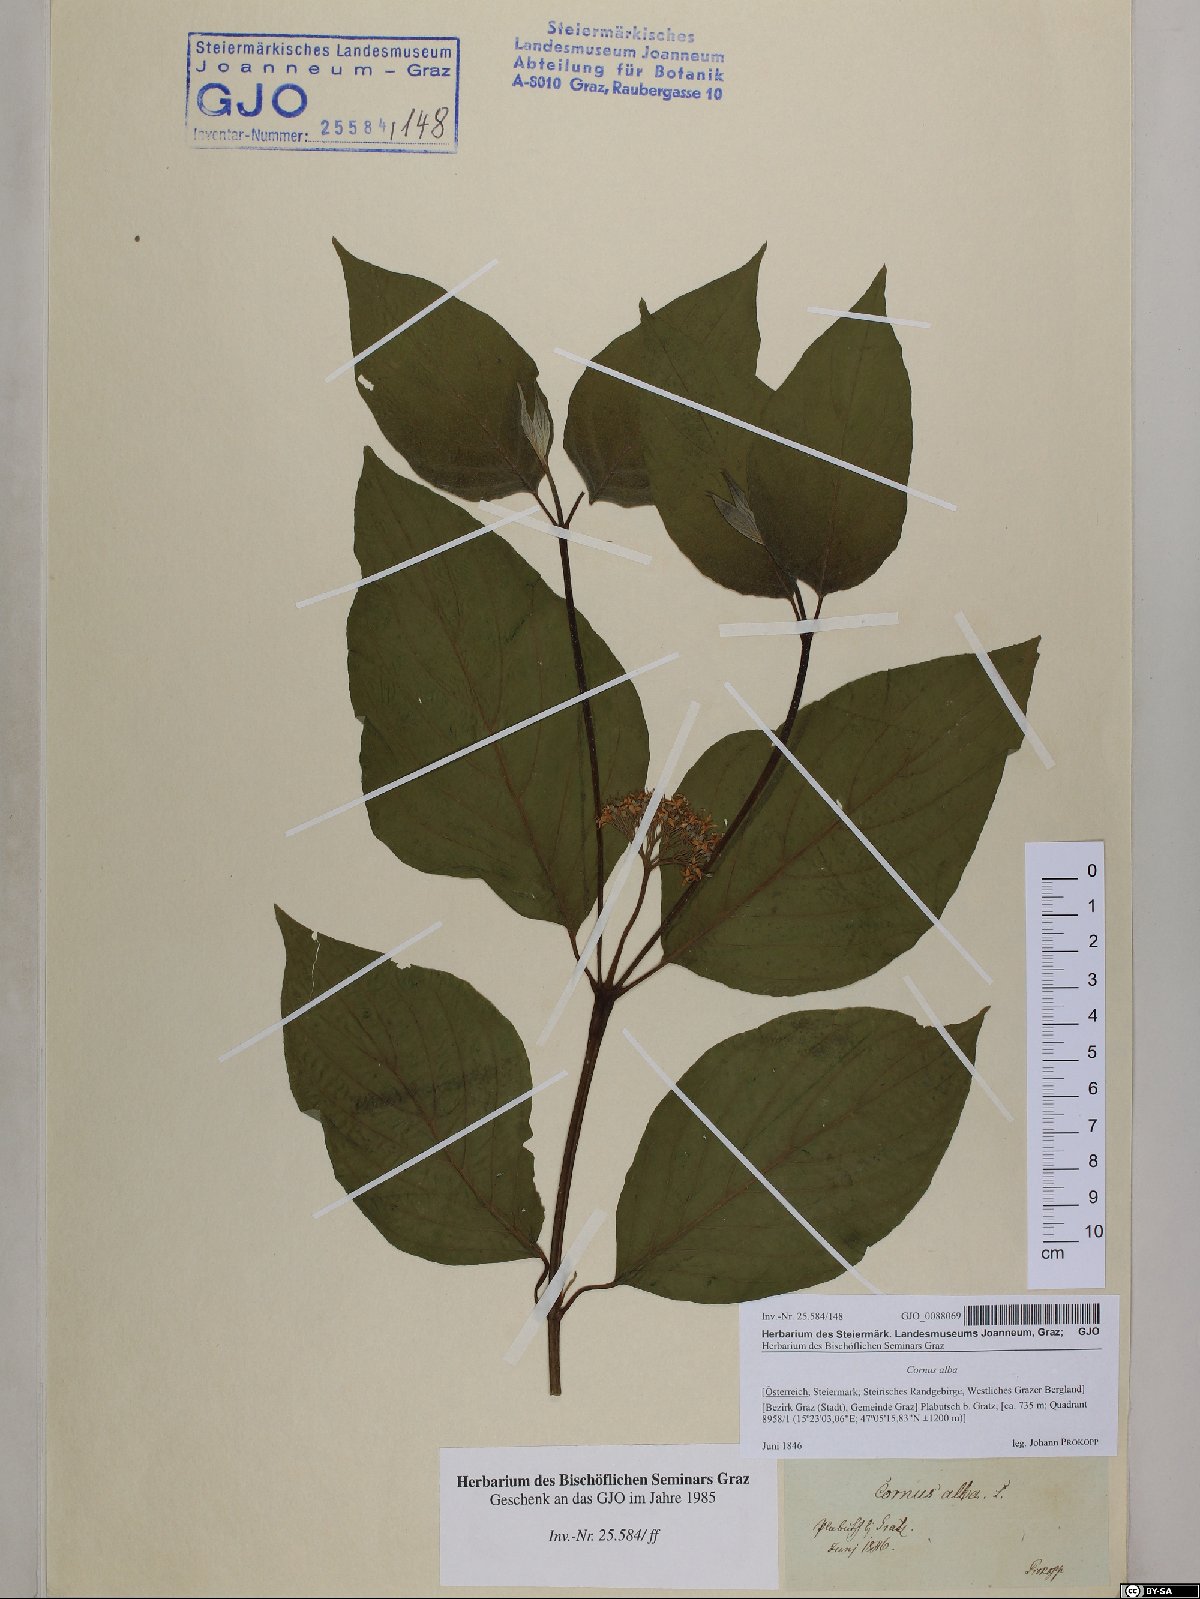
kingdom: Plantae
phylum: Tracheophyta
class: Magnoliopsida
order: Cornales
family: Cornaceae
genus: Cornus
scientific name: Cornus alba
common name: White dogwood
